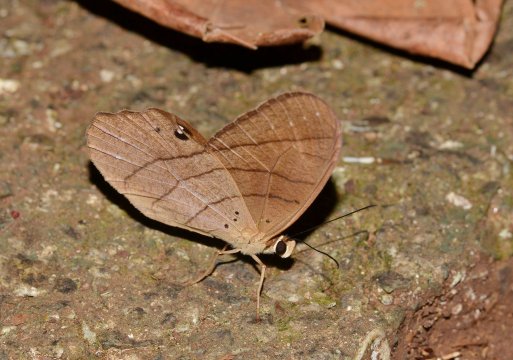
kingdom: Animalia
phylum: Arthropoda
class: Insecta
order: Lepidoptera
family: Nymphalidae
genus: Pierella
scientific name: Pierella luna
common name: Moon Satyr
